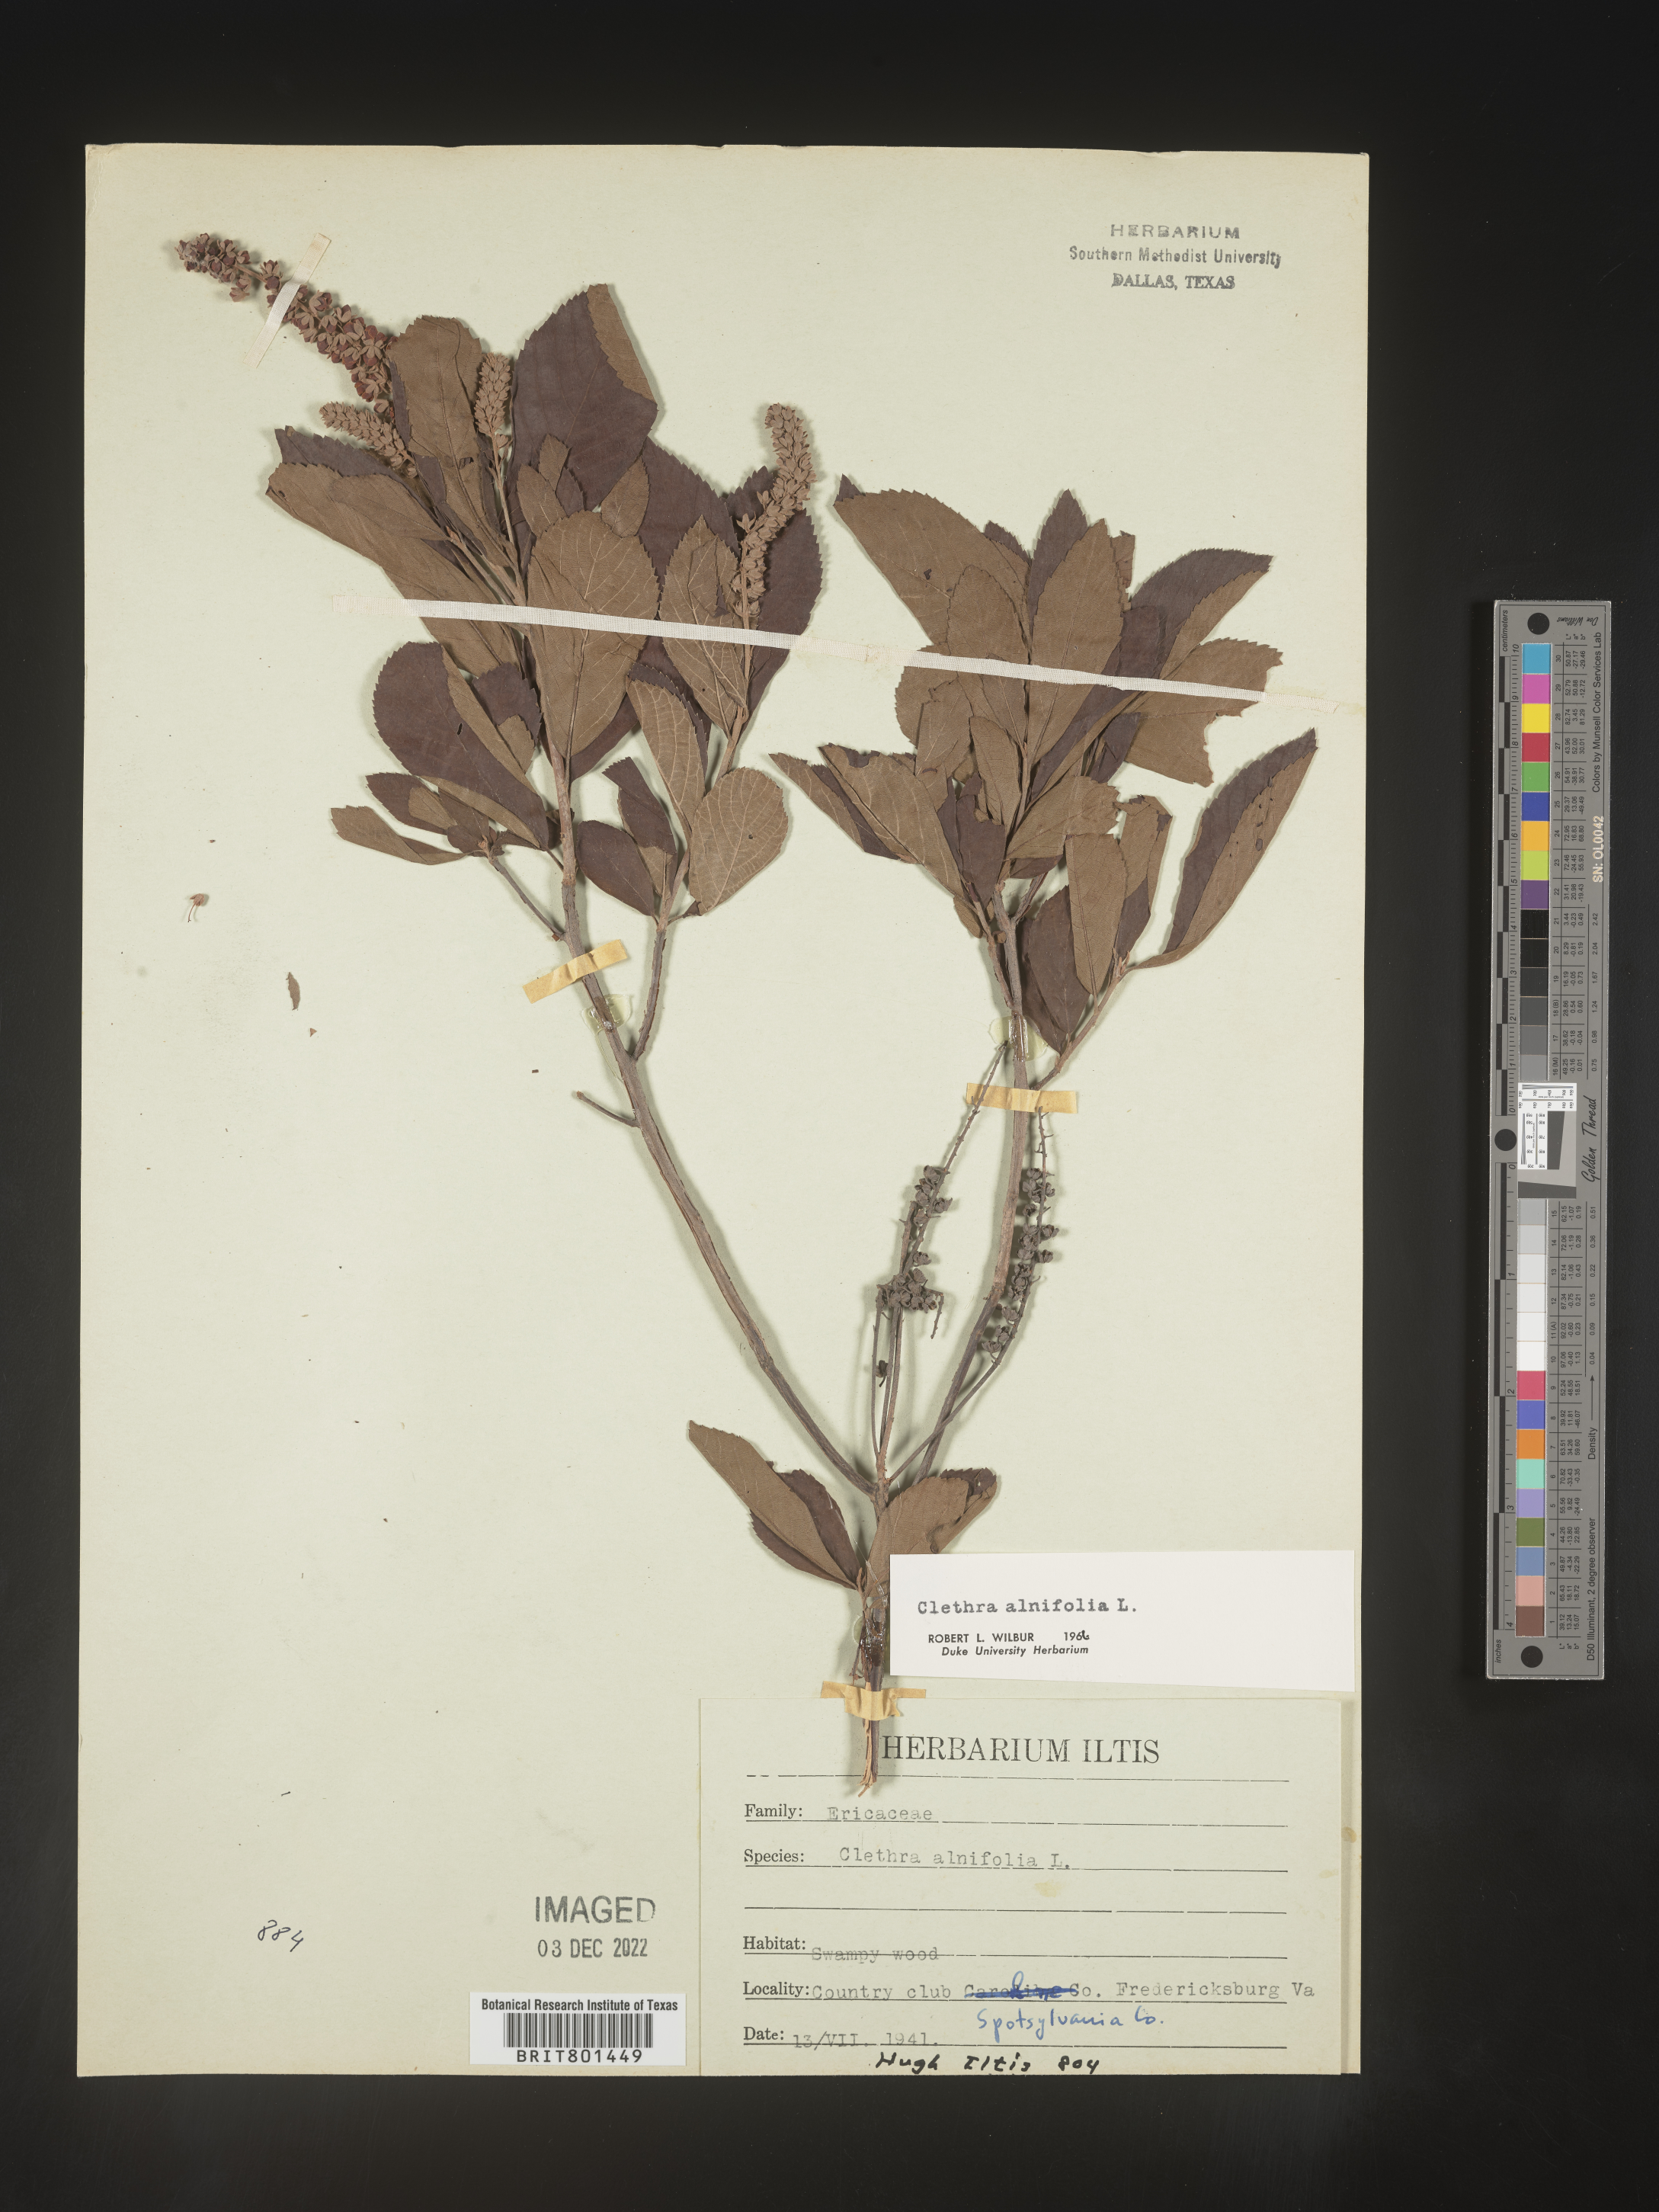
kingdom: Plantae
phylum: Tracheophyta
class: Magnoliopsida
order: Ericales
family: Clethraceae
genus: Clethra
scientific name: Clethra alnifolia
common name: Sweet pepperbush
